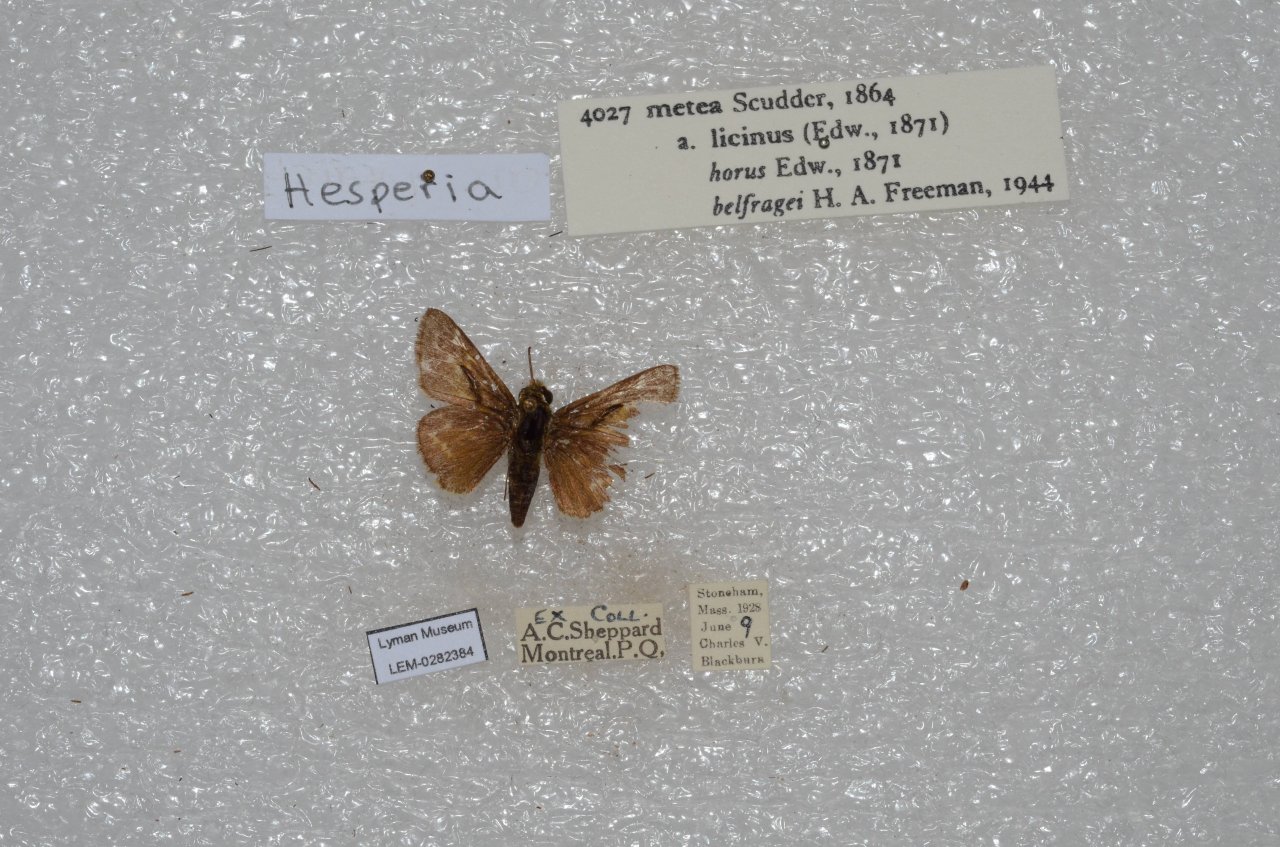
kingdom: Animalia
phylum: Arthropoda
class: Insecta
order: Lepidoptera
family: Hesperiidae
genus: Hesperia
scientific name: Hesperia metea
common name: Cobweb Skipper
